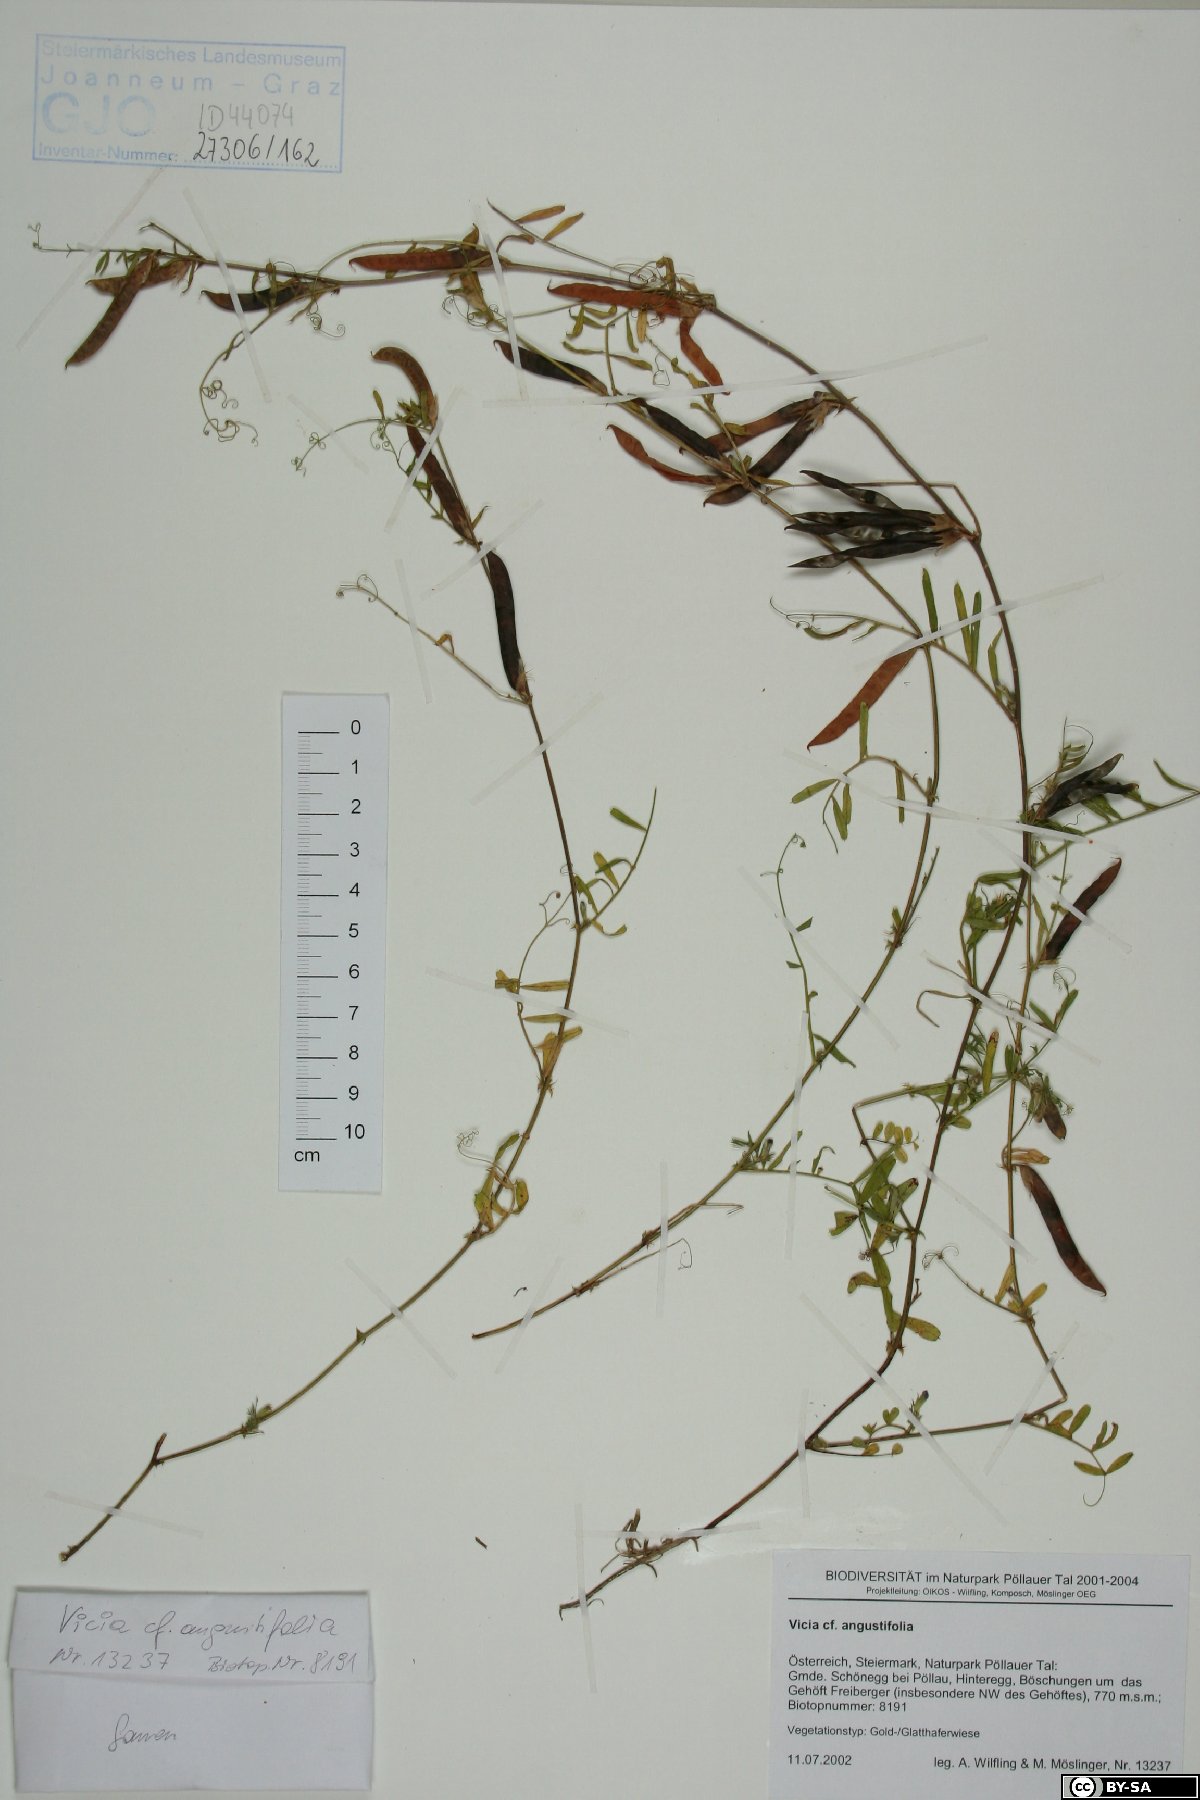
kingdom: Plantae
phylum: Tracheophyta
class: Magnoliopsida
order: Fabales
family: Fabaceae
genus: Vicia
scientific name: Vicia sativa
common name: Garden vetch
